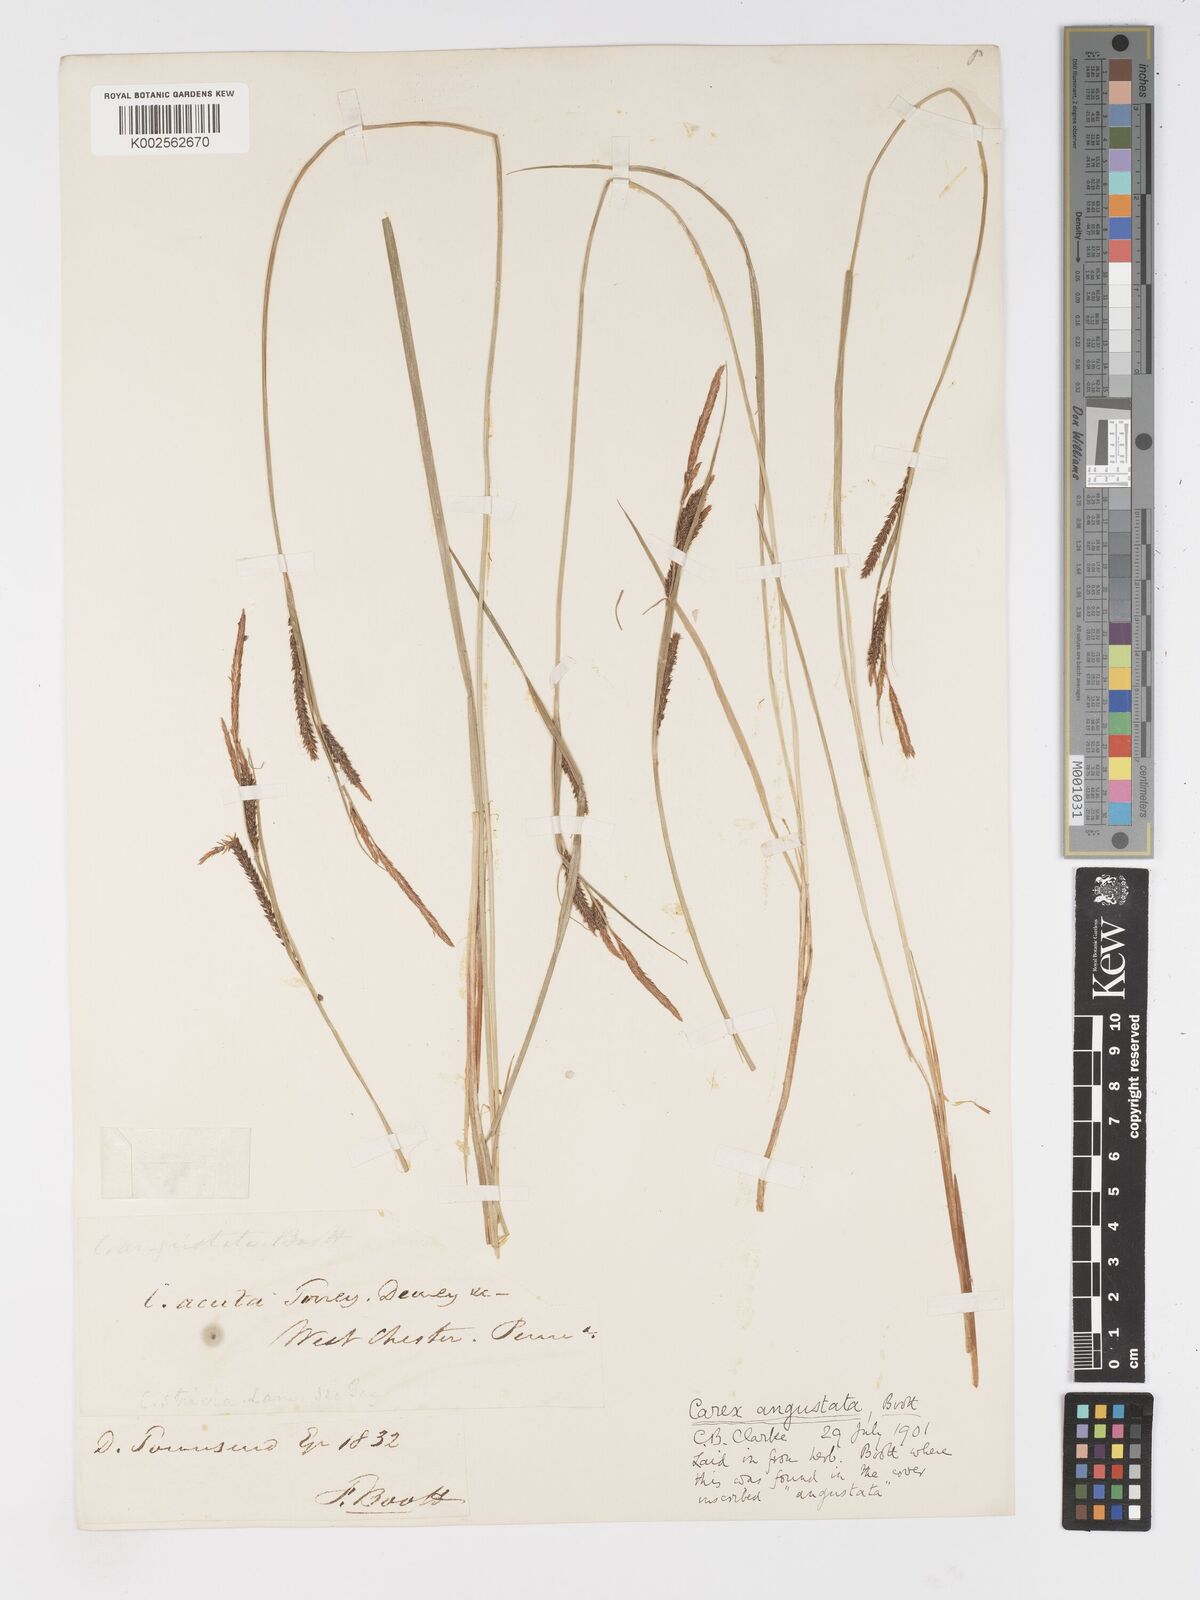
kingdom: Plantae
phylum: Tracheophyta
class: Liliopsida
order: Poales
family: Cyperaceae
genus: Carex
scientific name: Carex stricta
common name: Hummock sedge
